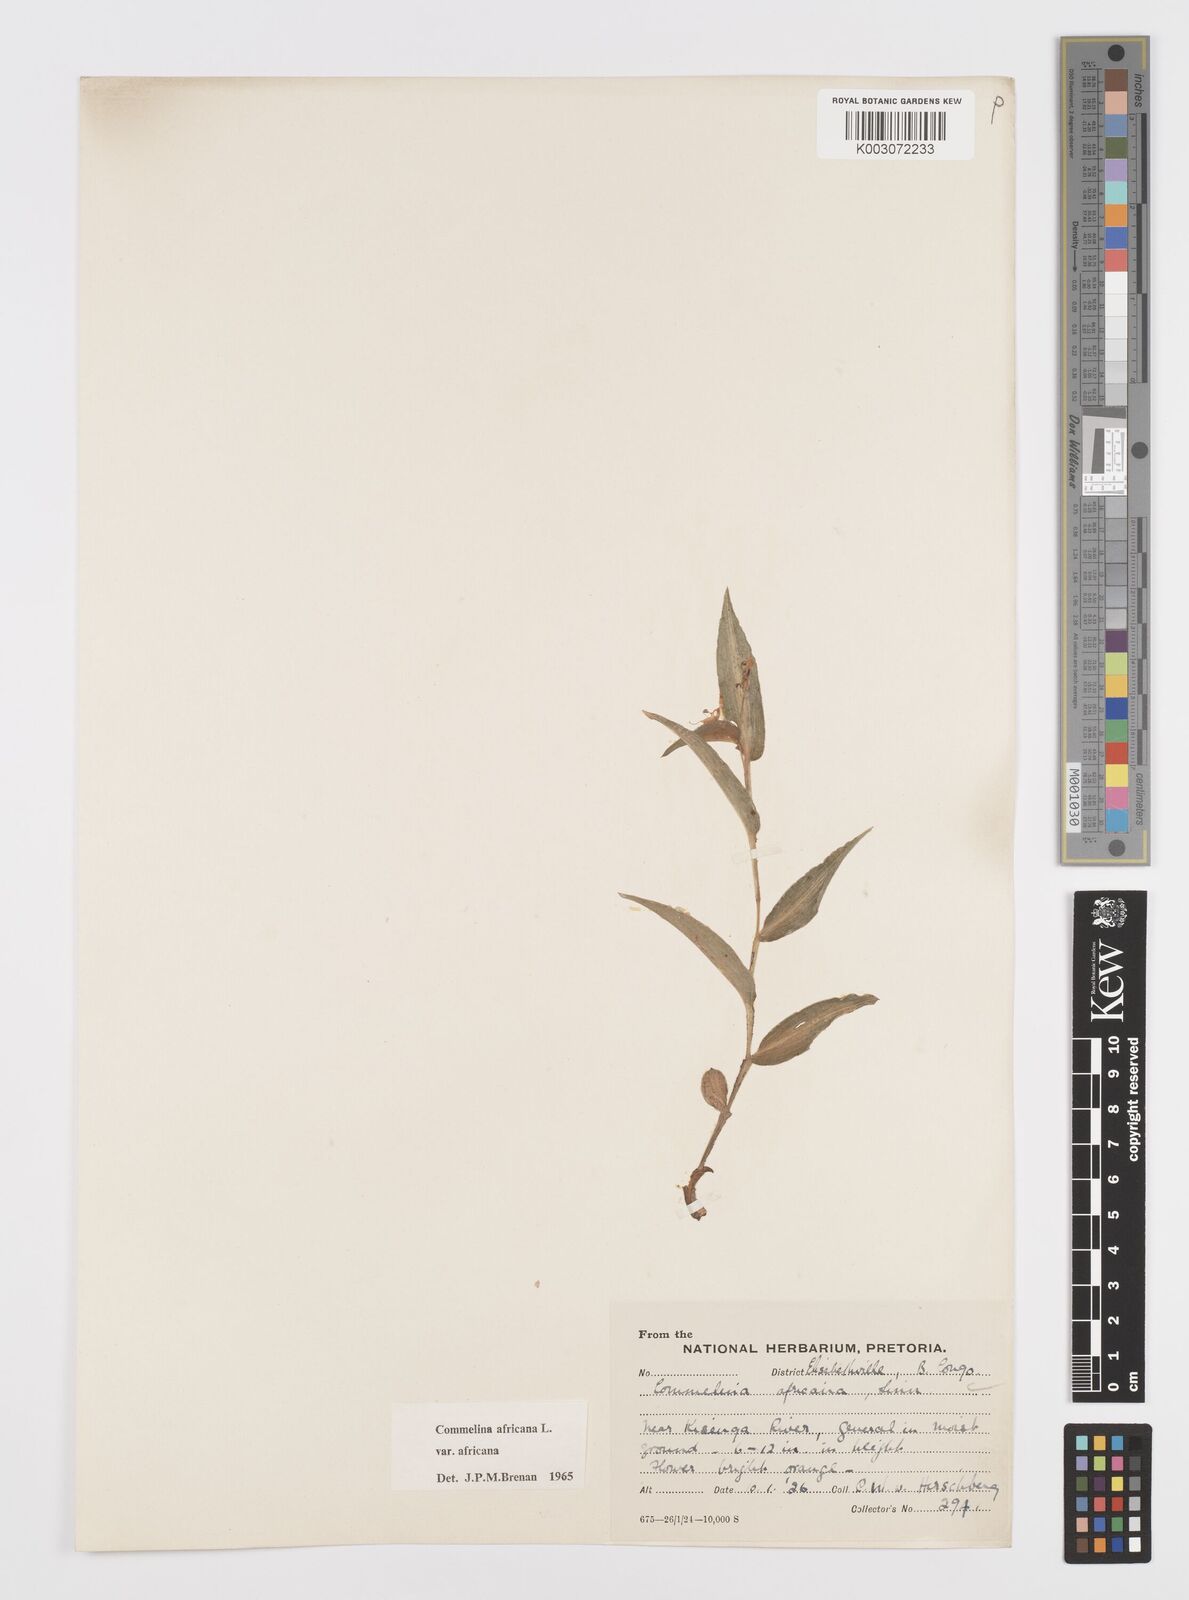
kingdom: Plantae
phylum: Tracheophyta
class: Liliopsida
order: Commelinales
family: Commelinaceae
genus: Commelina
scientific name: Commelina africana
